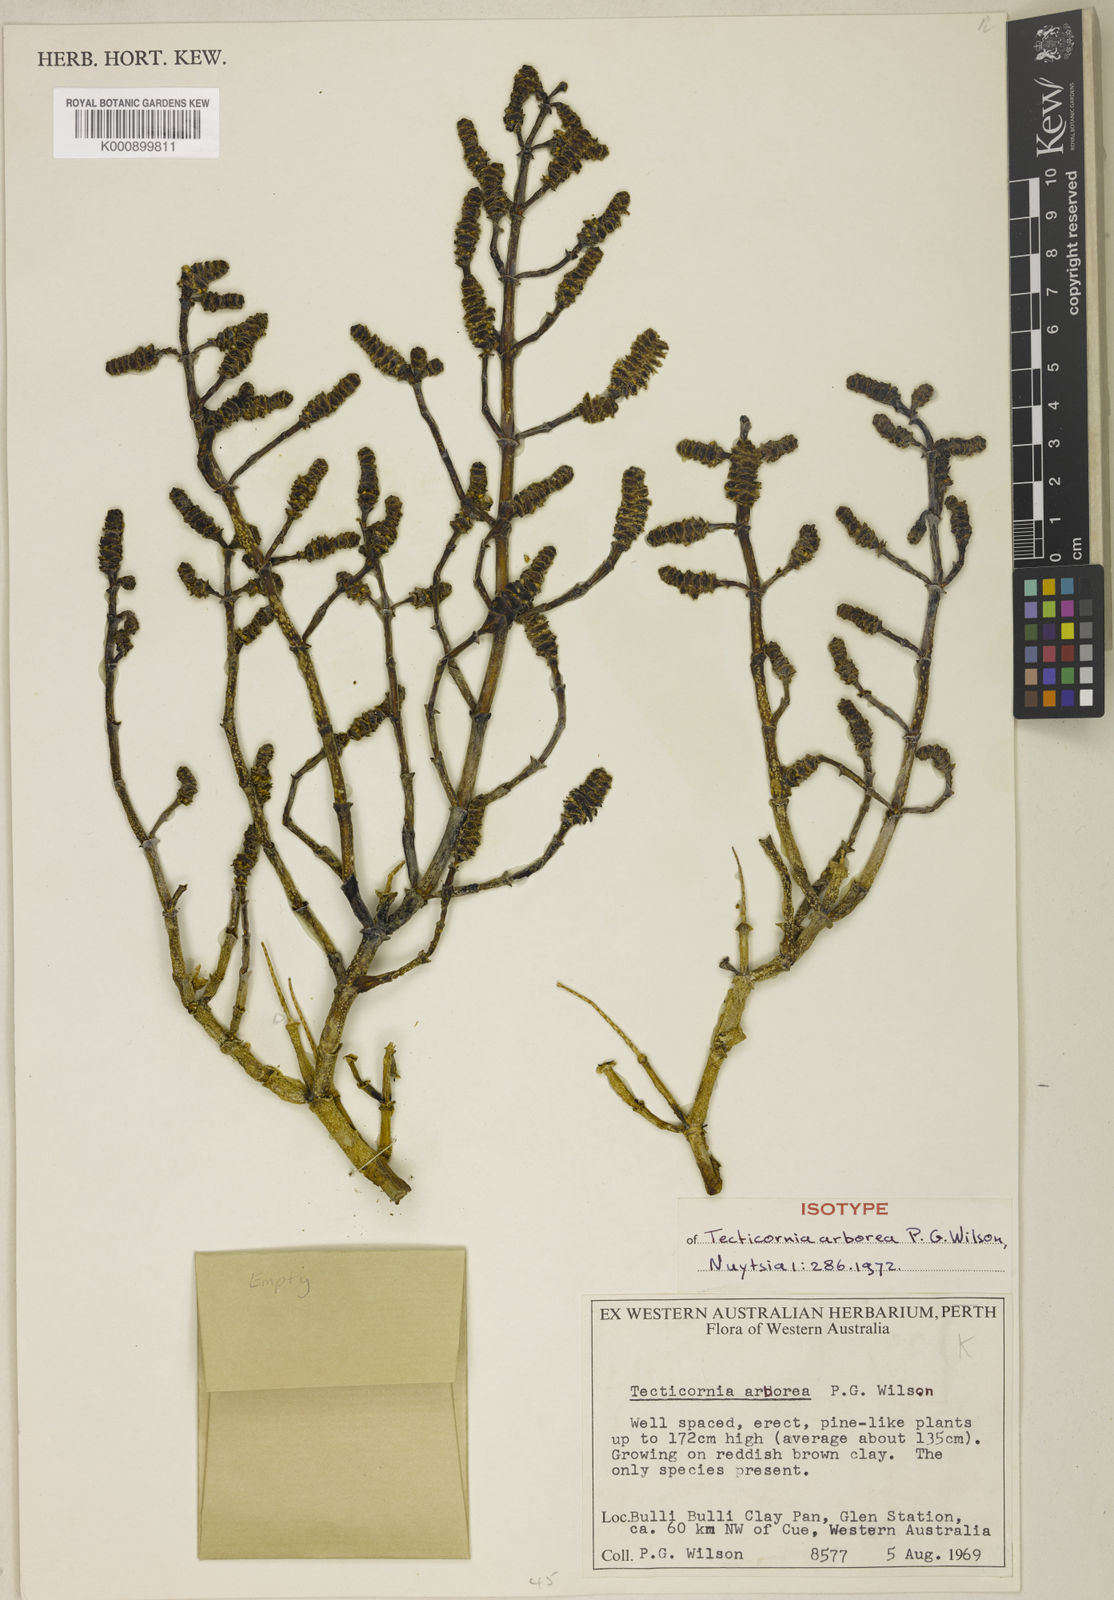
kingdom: Plantae
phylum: Tracheophyta
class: Magnoliopsida
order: Caryophyllales
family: Amaranthaceae
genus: Tecticornia
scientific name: Tecticornia arborea
